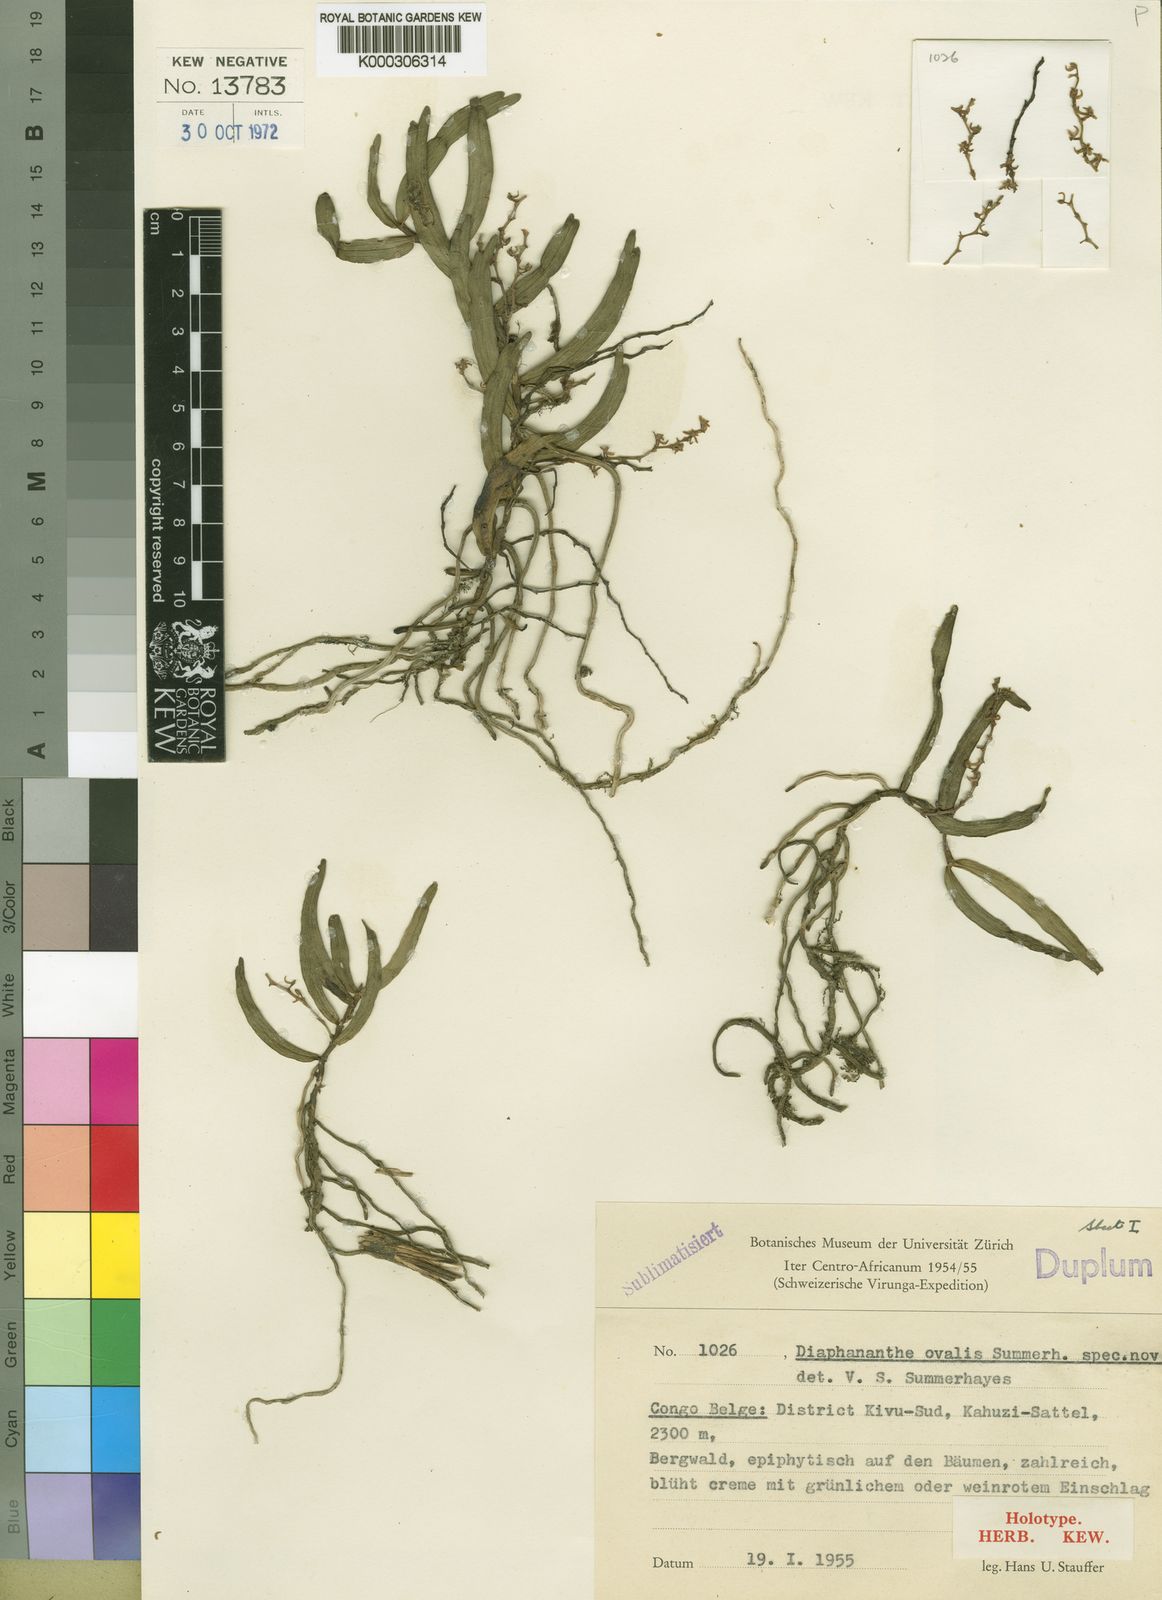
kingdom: Plantae
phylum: Tracheophyta
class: Liliopsida
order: Asparagales
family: Orchidaceae
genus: Rhipidoglossum
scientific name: Rhipidoglossum ovale
